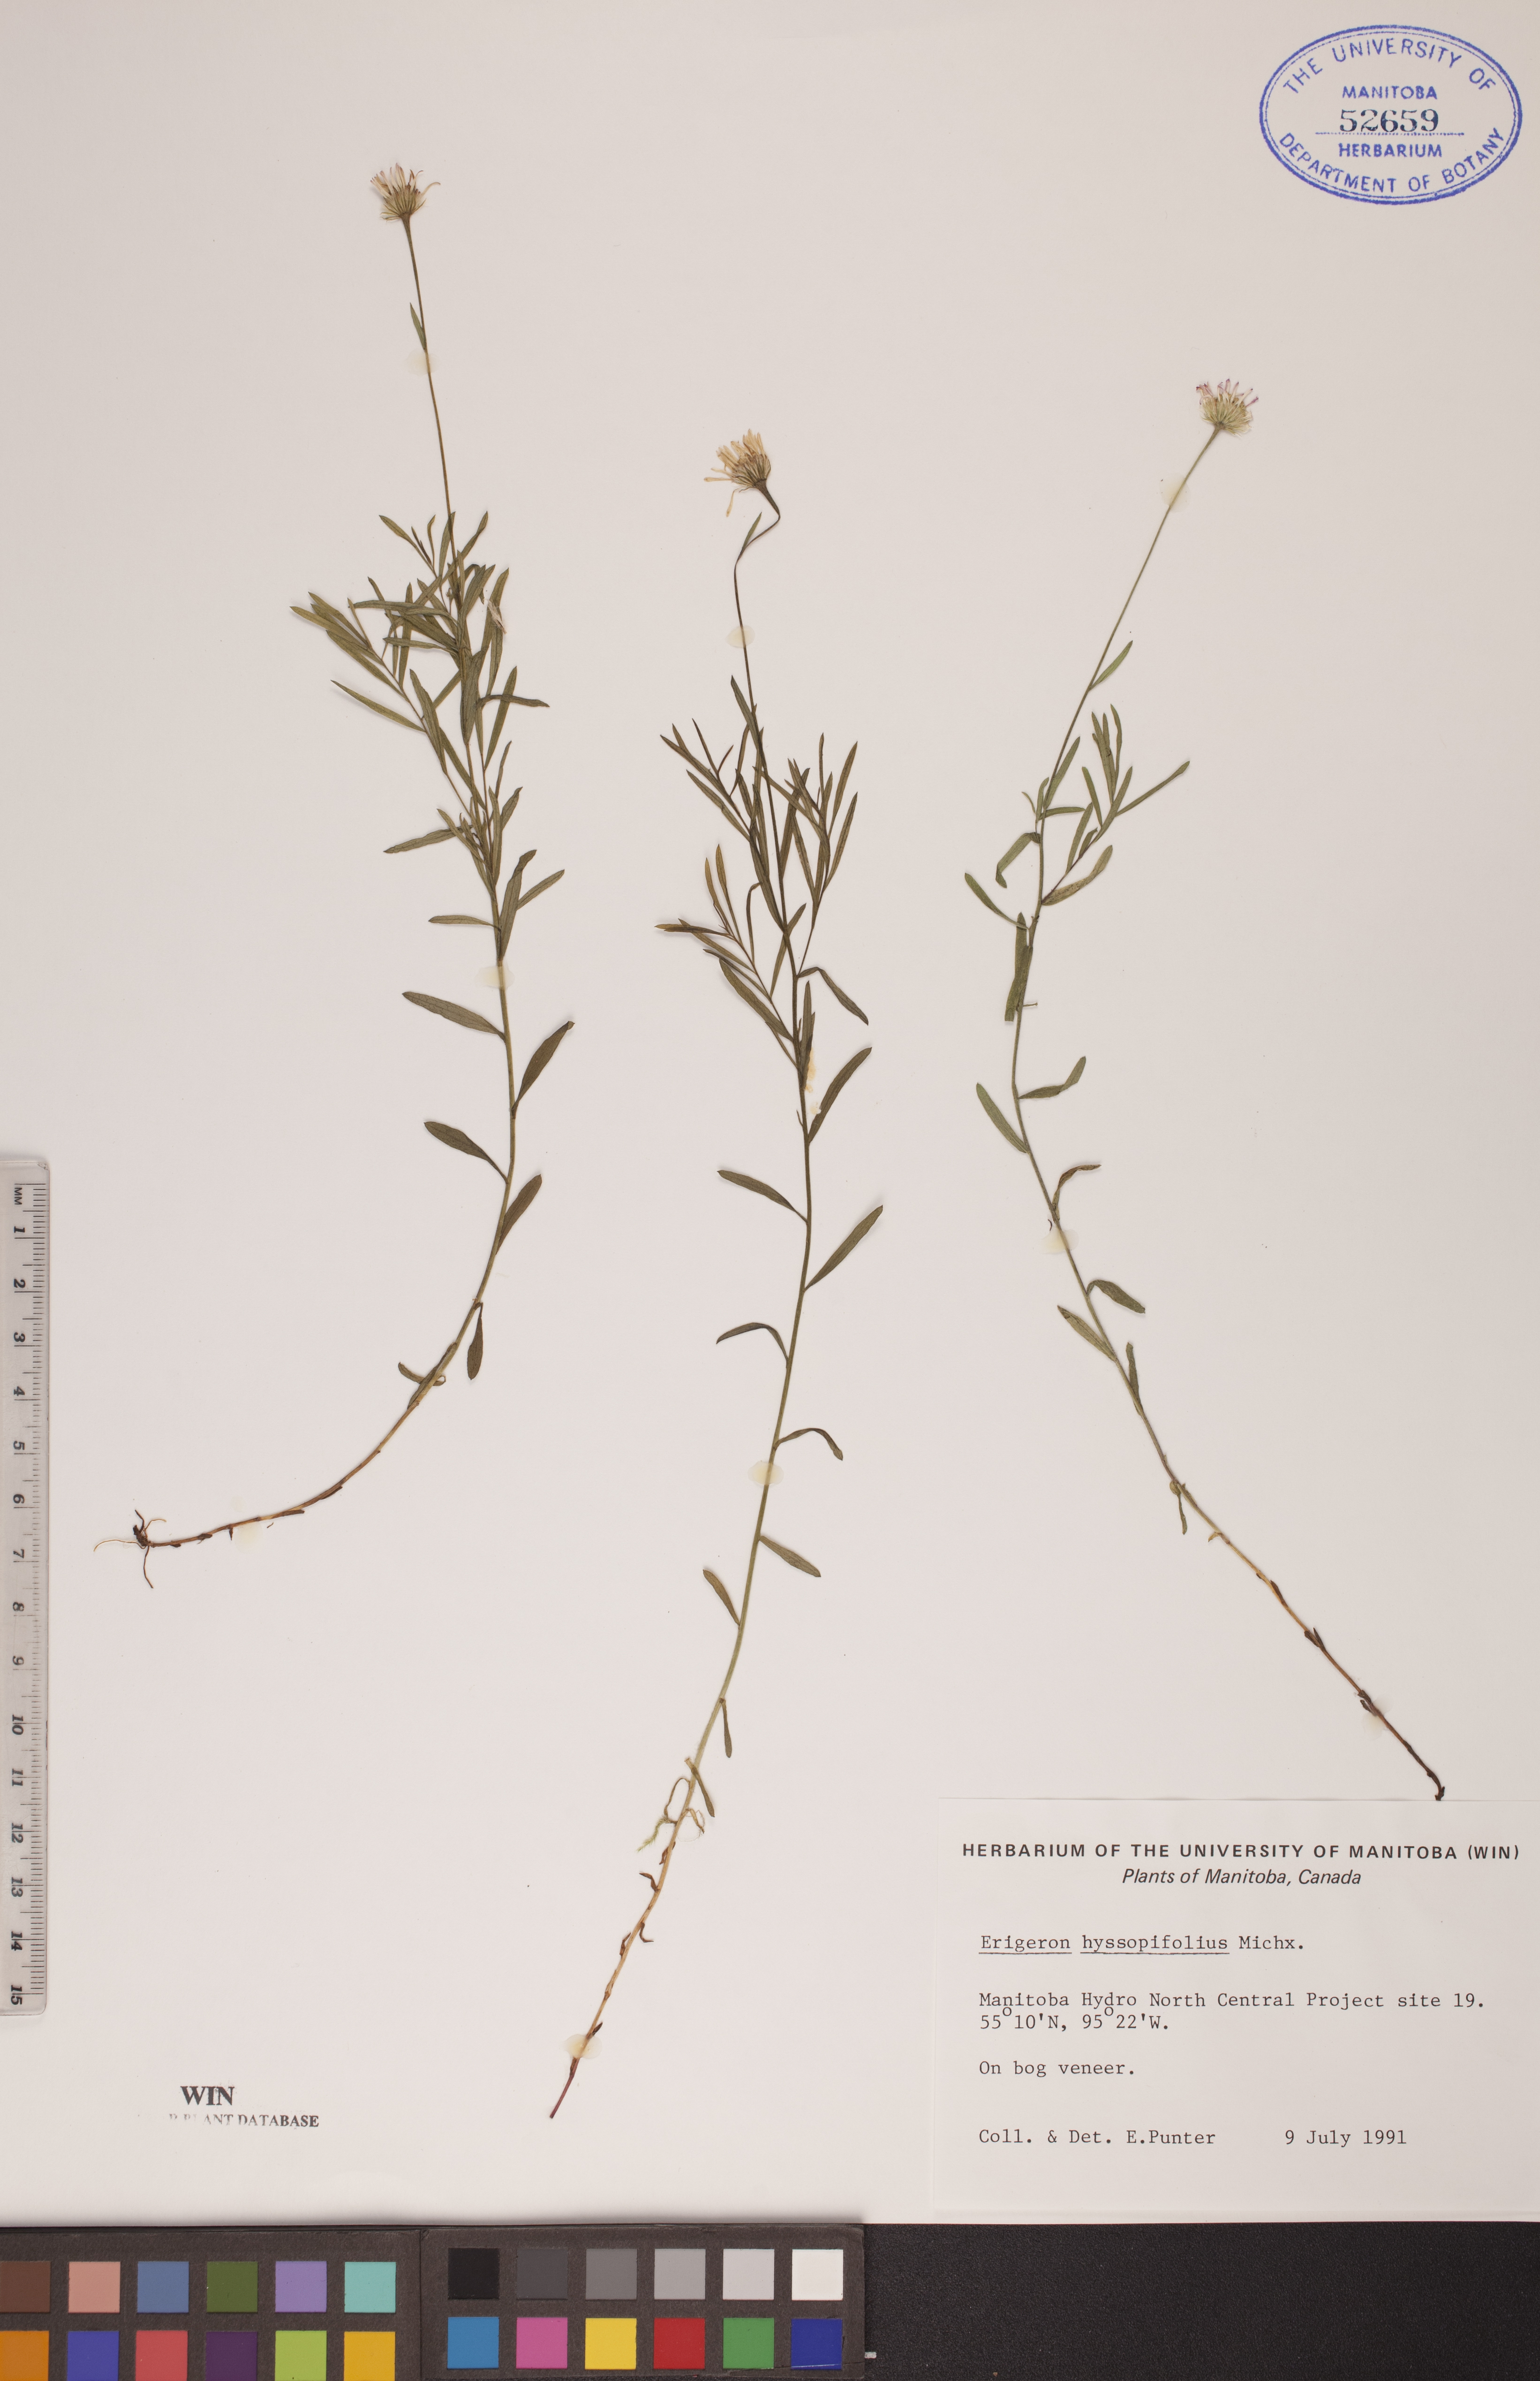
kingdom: Plantae
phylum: Tracheophyta
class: Magnoliopsida
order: Asterales
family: Asteraceae
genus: Erigeron
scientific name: Erigeron hyssopifolius
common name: Daisy fleabane
